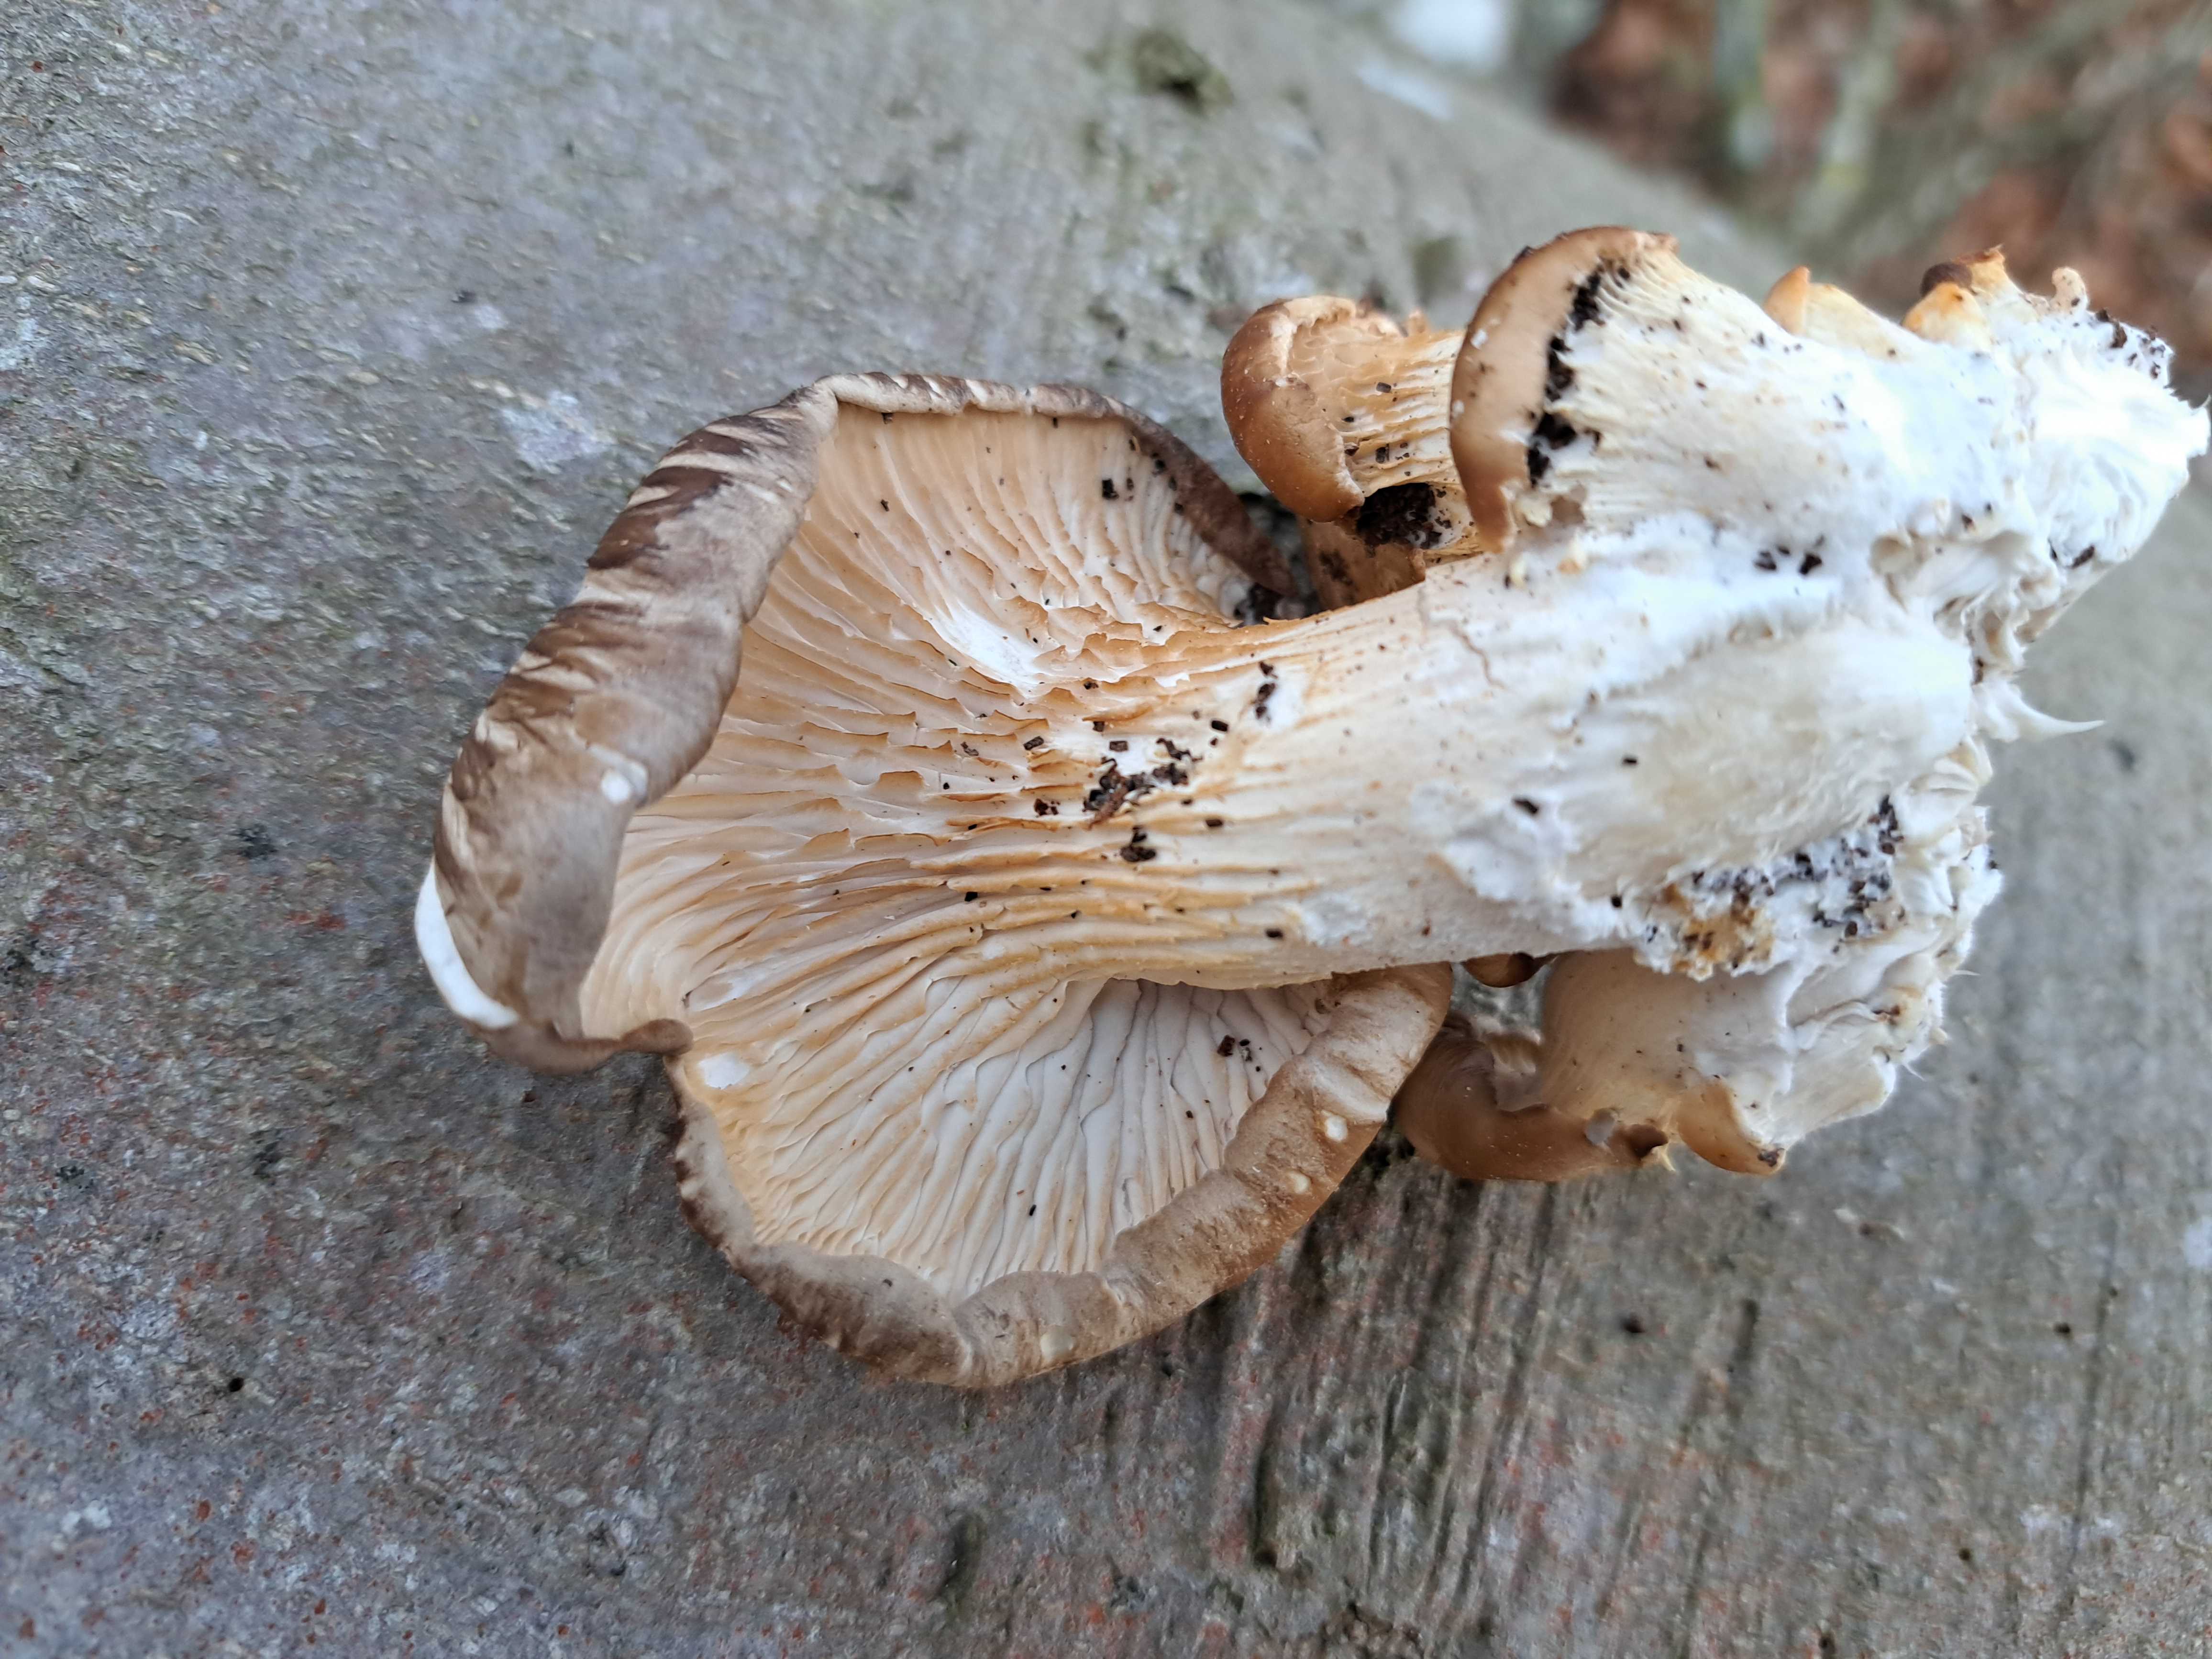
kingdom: Fungi
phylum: Basidiomycota
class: Agaricomycetes
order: Agaricales
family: Pleurotaceae
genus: Pleurotus
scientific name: Pleurotus ostreatus
